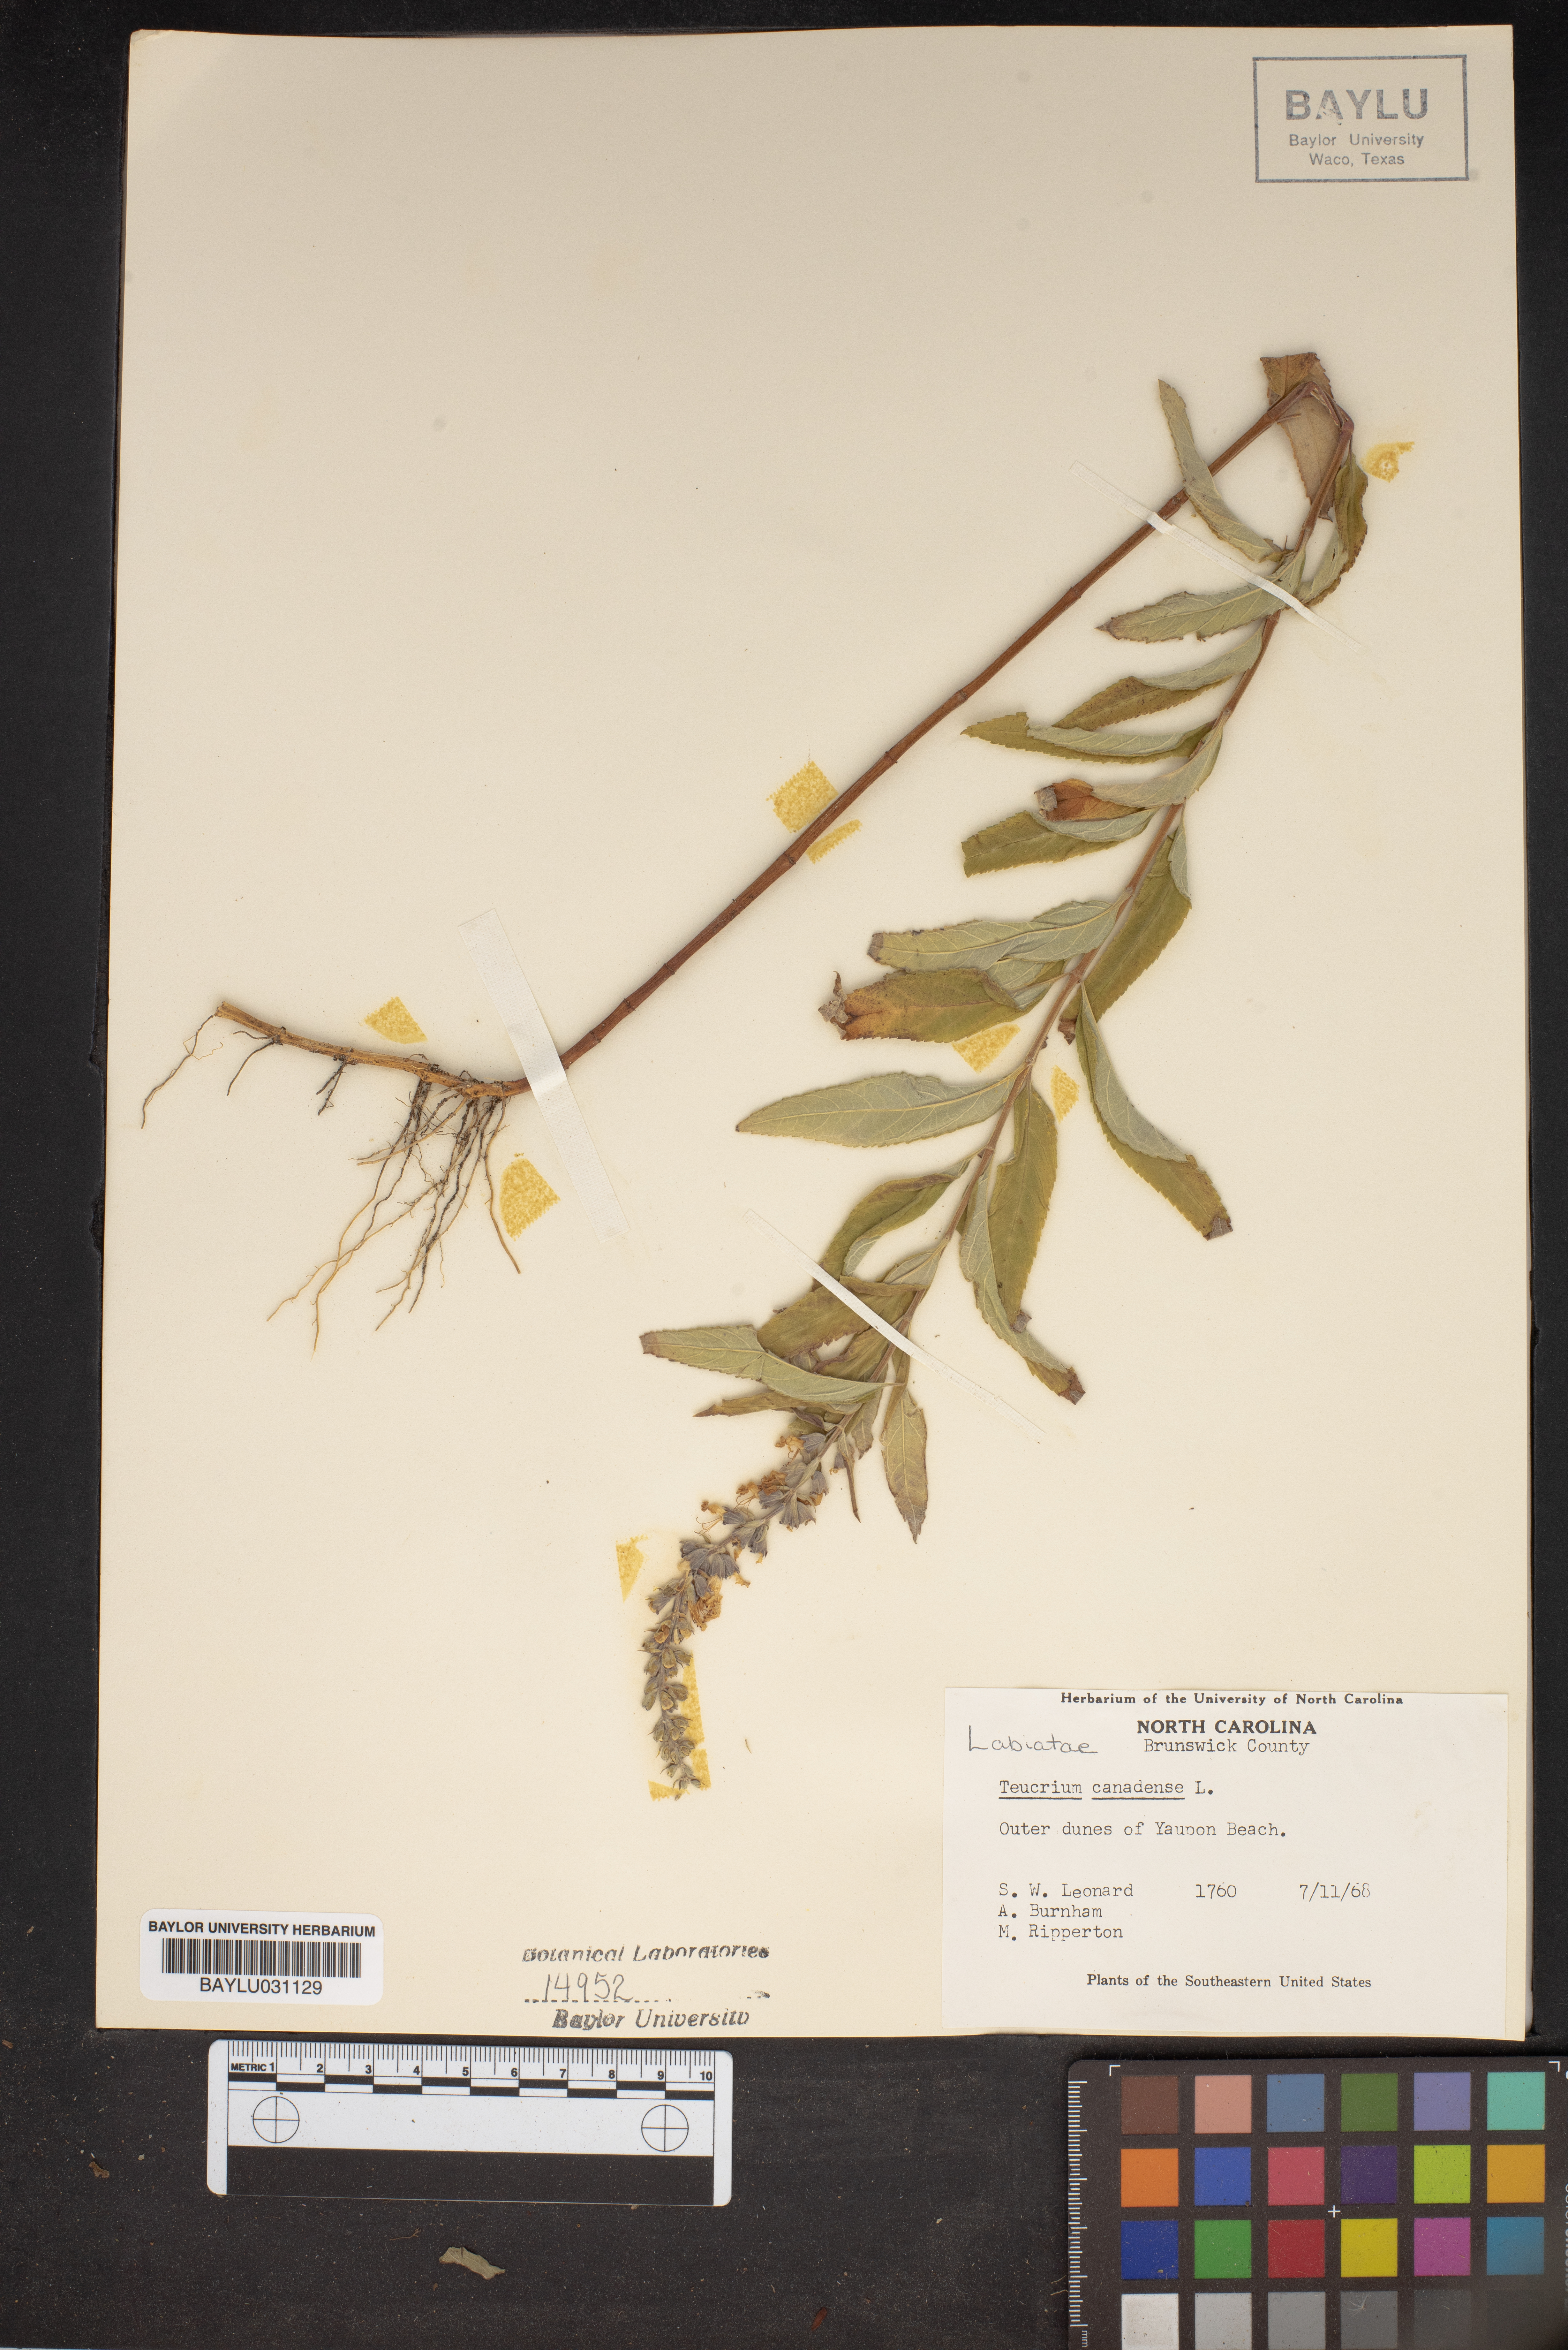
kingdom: Plantae
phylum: Tracheophyta
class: Magnoliopsida
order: Lamiales
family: Lamiaceae
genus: Teucrium
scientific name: Teucrium canadense
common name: American germander
